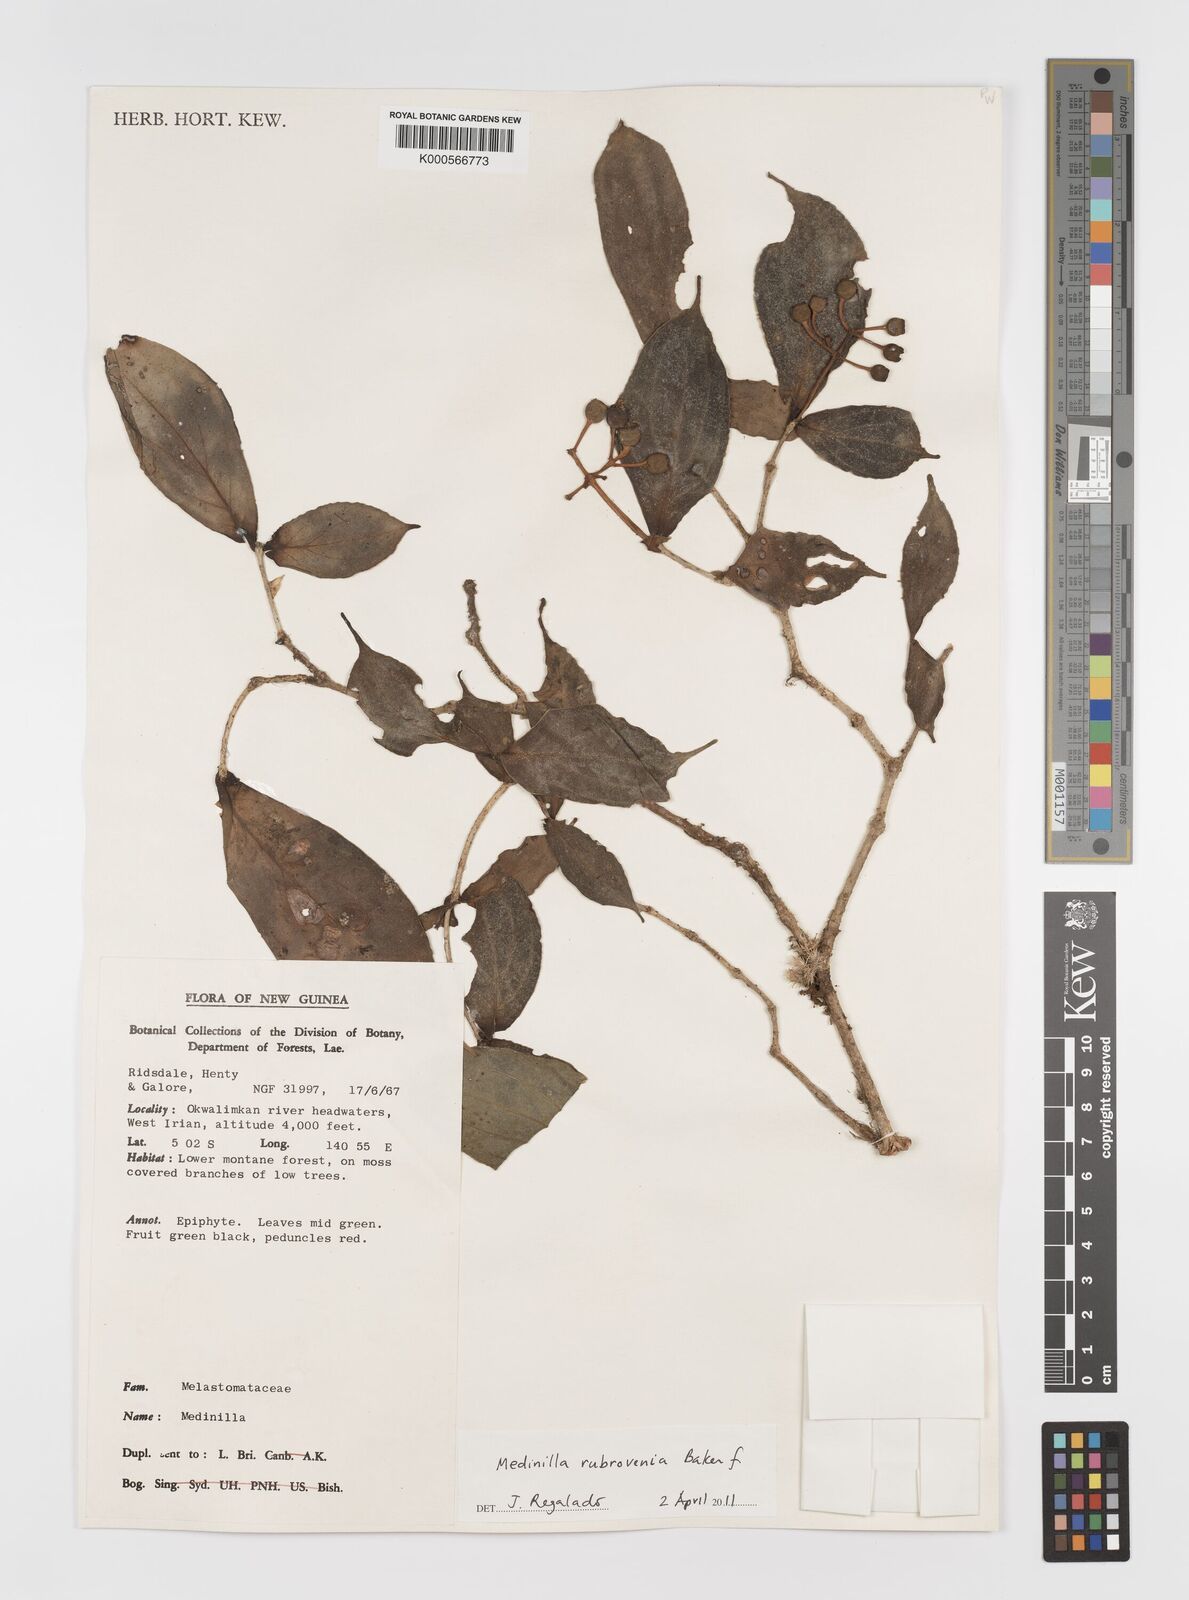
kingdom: Plantae
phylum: Tracheophyta
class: Magnoliopsida
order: Myrtales
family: Melastomataceae
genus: Medinilla
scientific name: Medinilla rubrovenia
